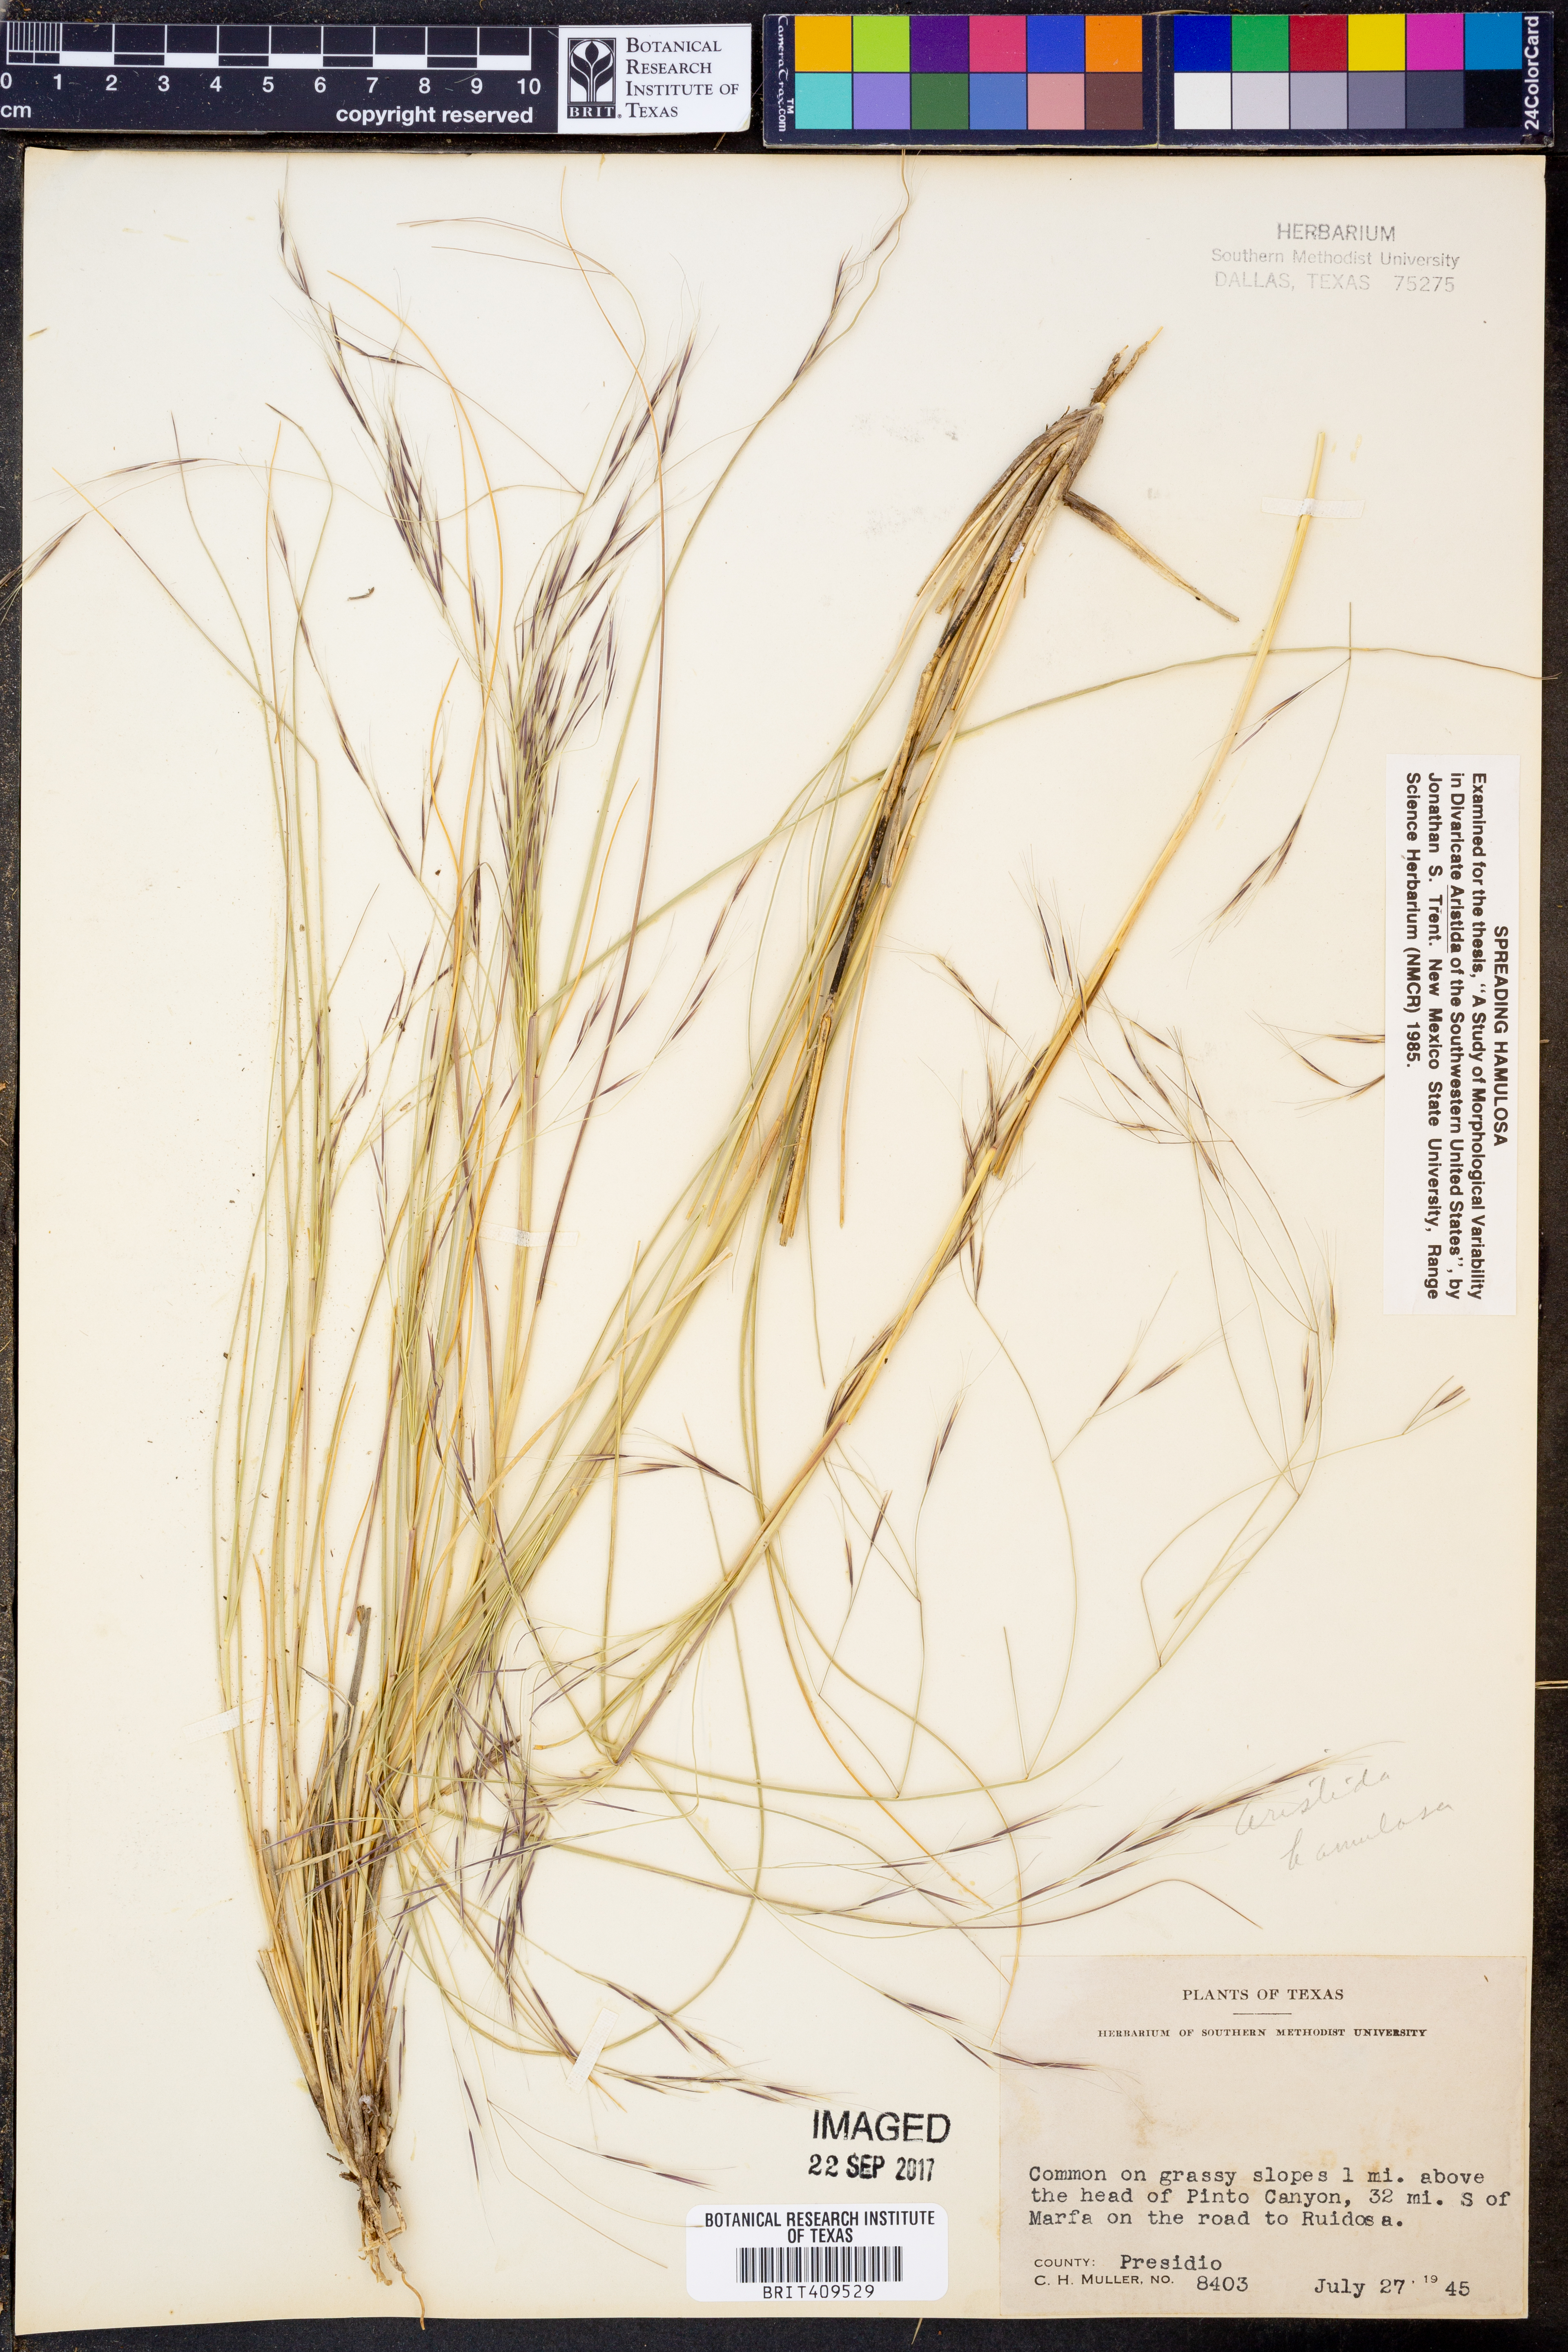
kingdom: Plantae
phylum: Tracheophyta
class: Liliopsida
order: Poales
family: Poaceae
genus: Aristida
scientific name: Aristida
